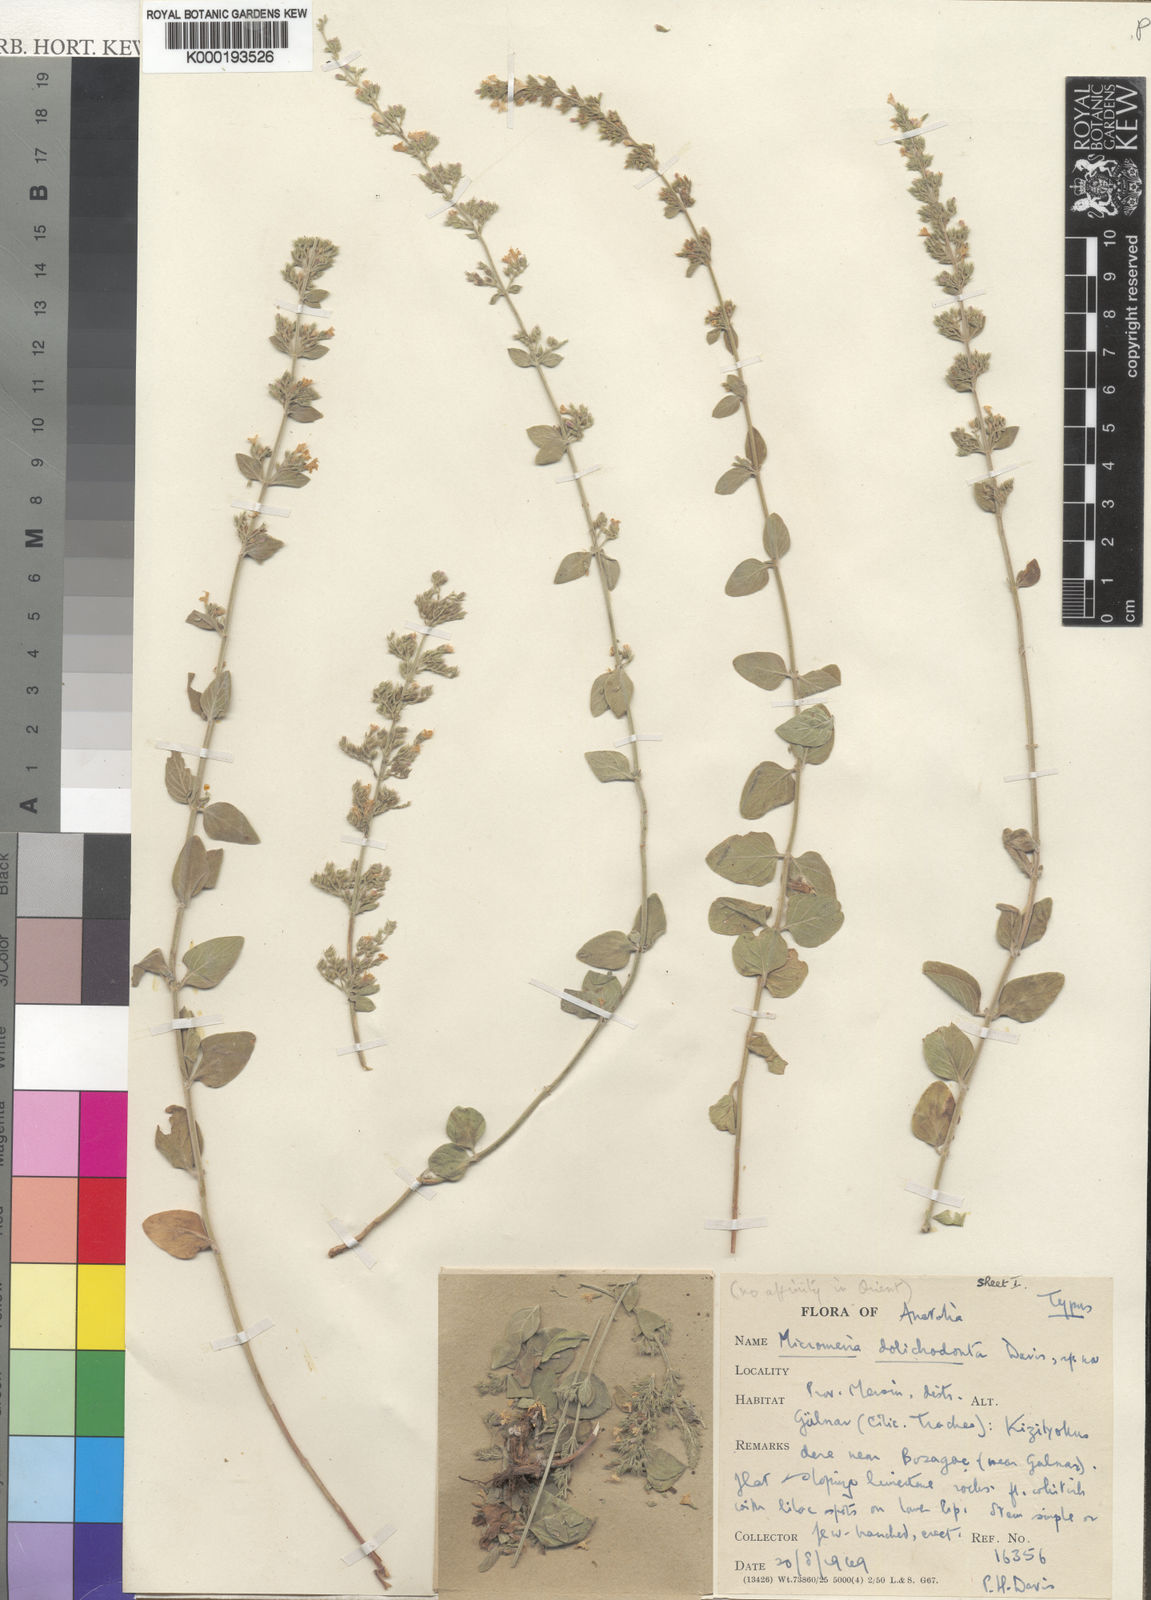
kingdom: Plantae
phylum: Tracheophyta
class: Magnoliopsida
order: Lamiales
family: Lamiaceae
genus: Clinopodium
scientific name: Clinopodium dolichodontum
